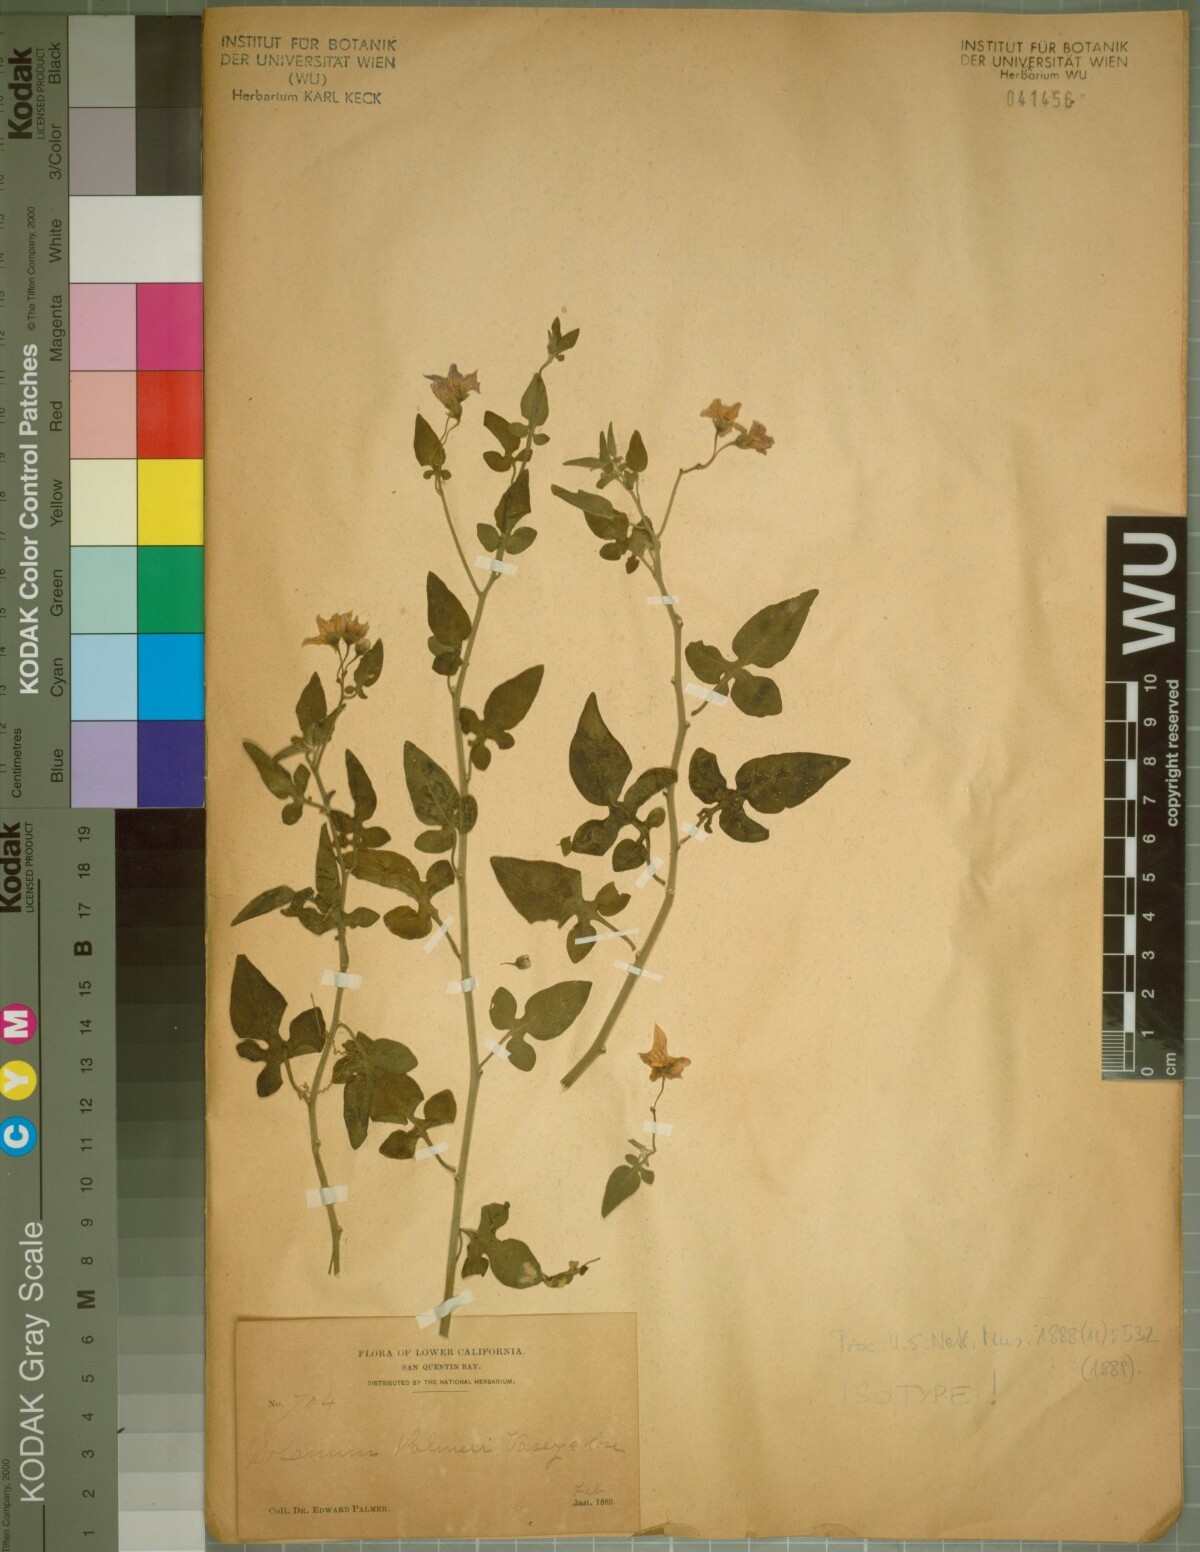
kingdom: Plantae
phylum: Tracheophyta
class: Magnoliopsida
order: Solanales
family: Solanaceae
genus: Solanum
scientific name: Solanum palmeri
